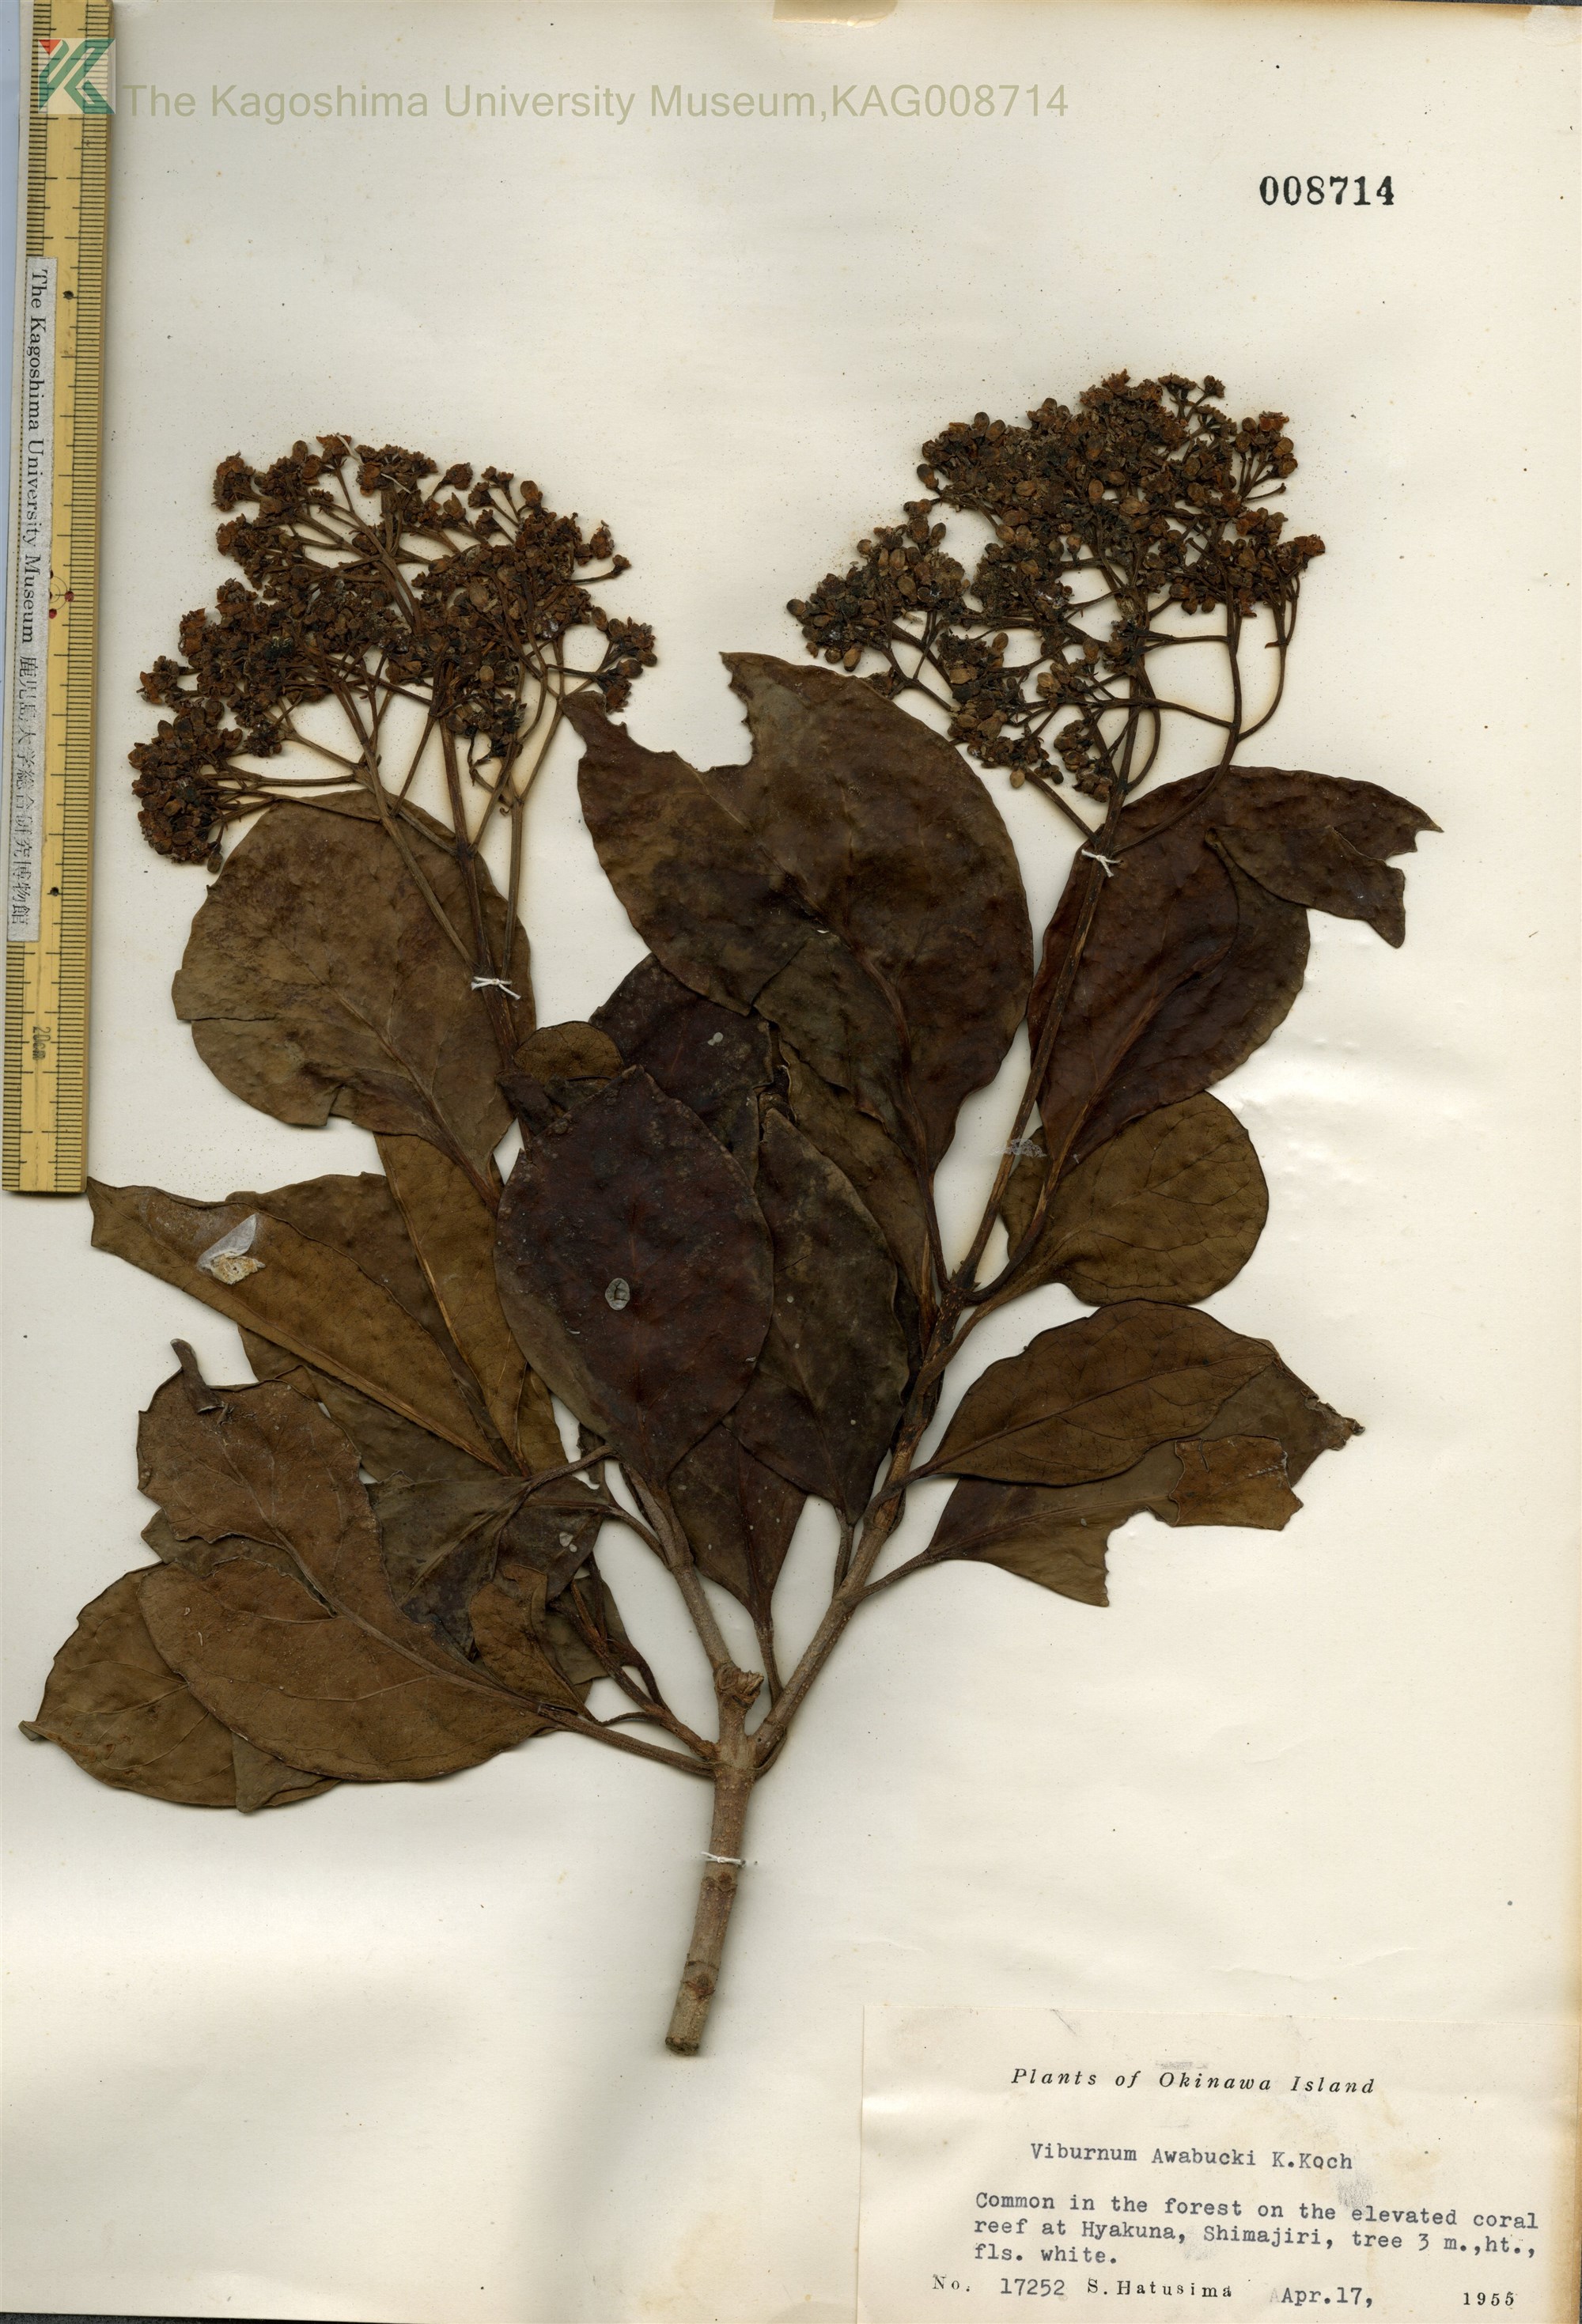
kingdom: Plantae
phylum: Tracheophyta
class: Magnoliopsida
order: Dipsacales
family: Viburnaceae
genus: Viburnum
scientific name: Viburnum odoratissimum
